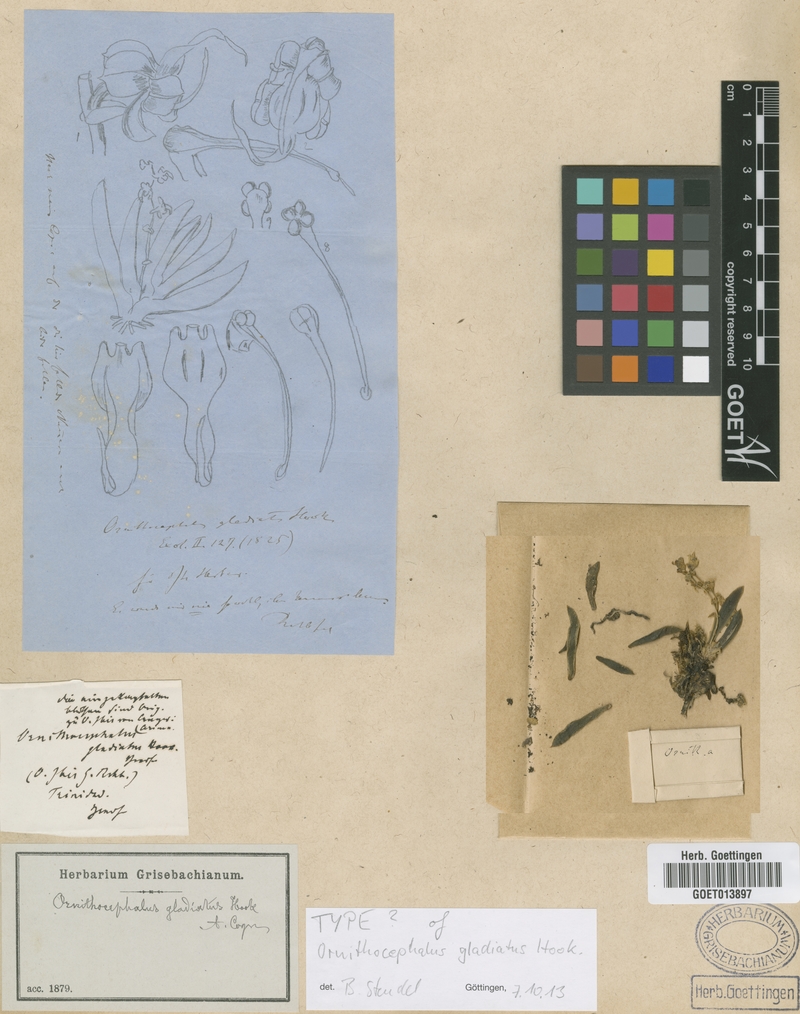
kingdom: Plantae
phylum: Tracheophyta
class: Liliopsida
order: Asparagales
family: Orchidaceae
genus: Ornithocephalus
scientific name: Ornithocephalus gladiatus
